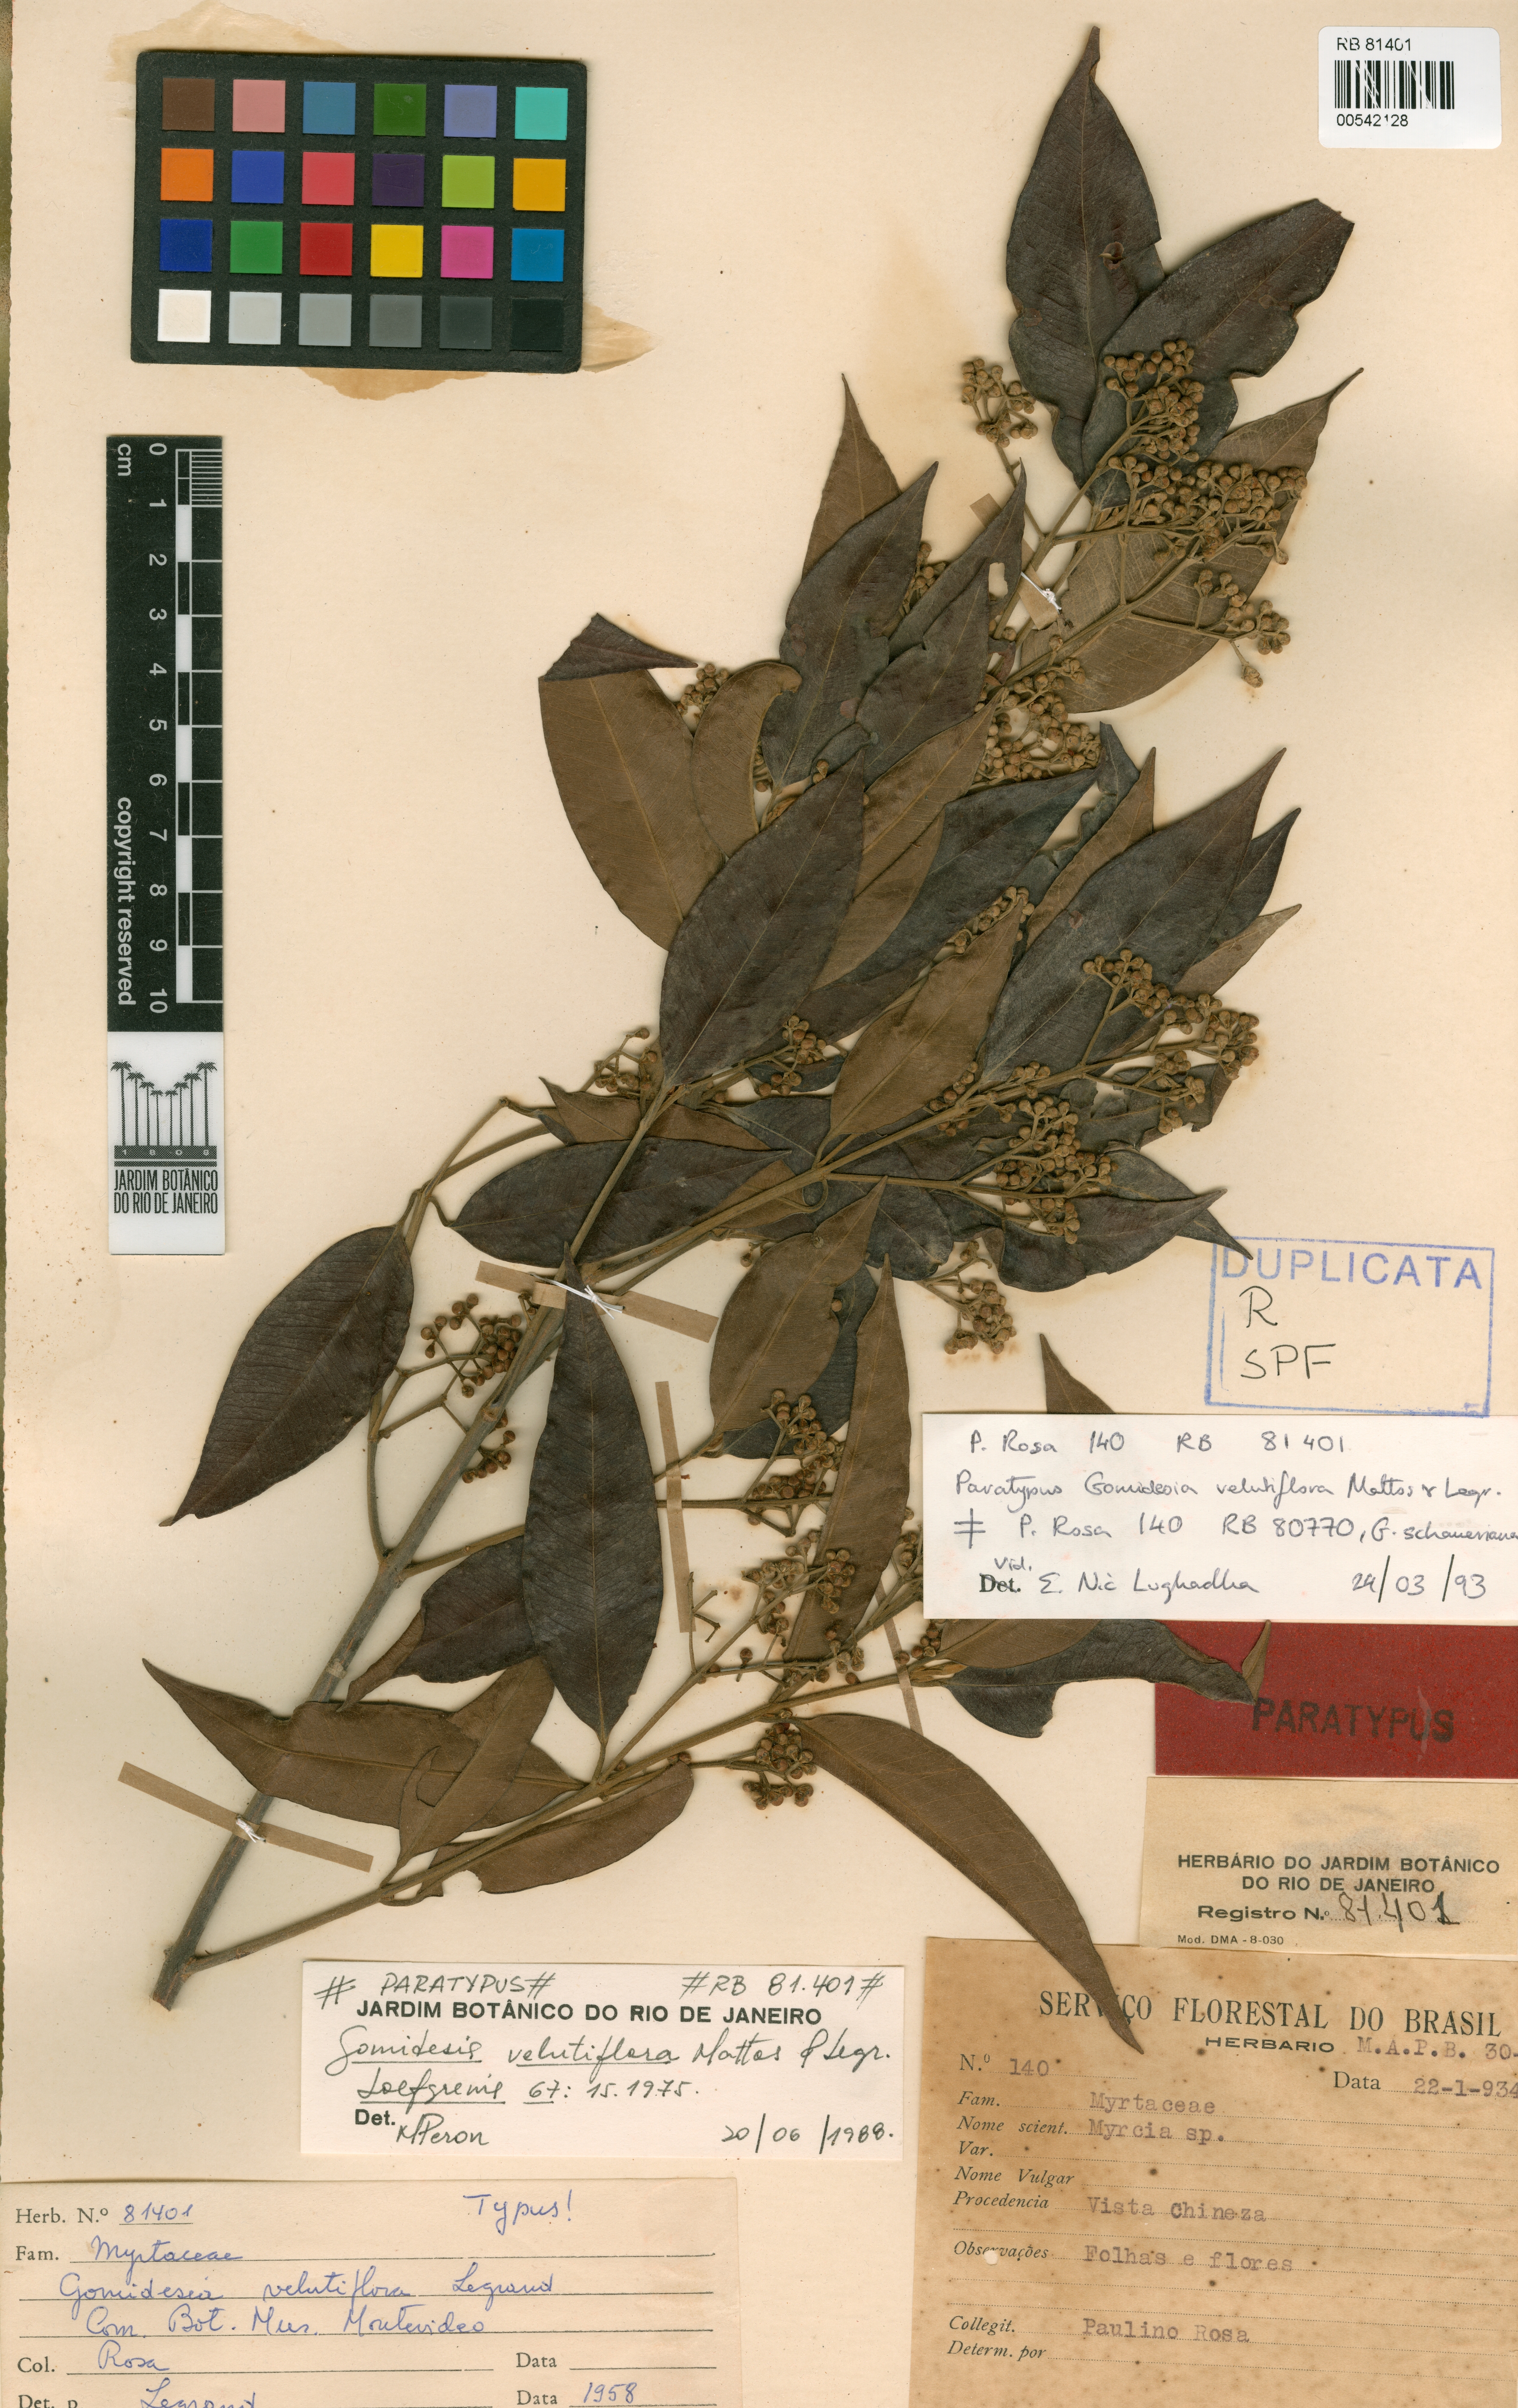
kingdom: Plantae
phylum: Tracheophyta
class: Magnoliopsida
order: Myrtales
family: Myrtaceae
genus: Myrcia
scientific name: Myrcia velutiflora
